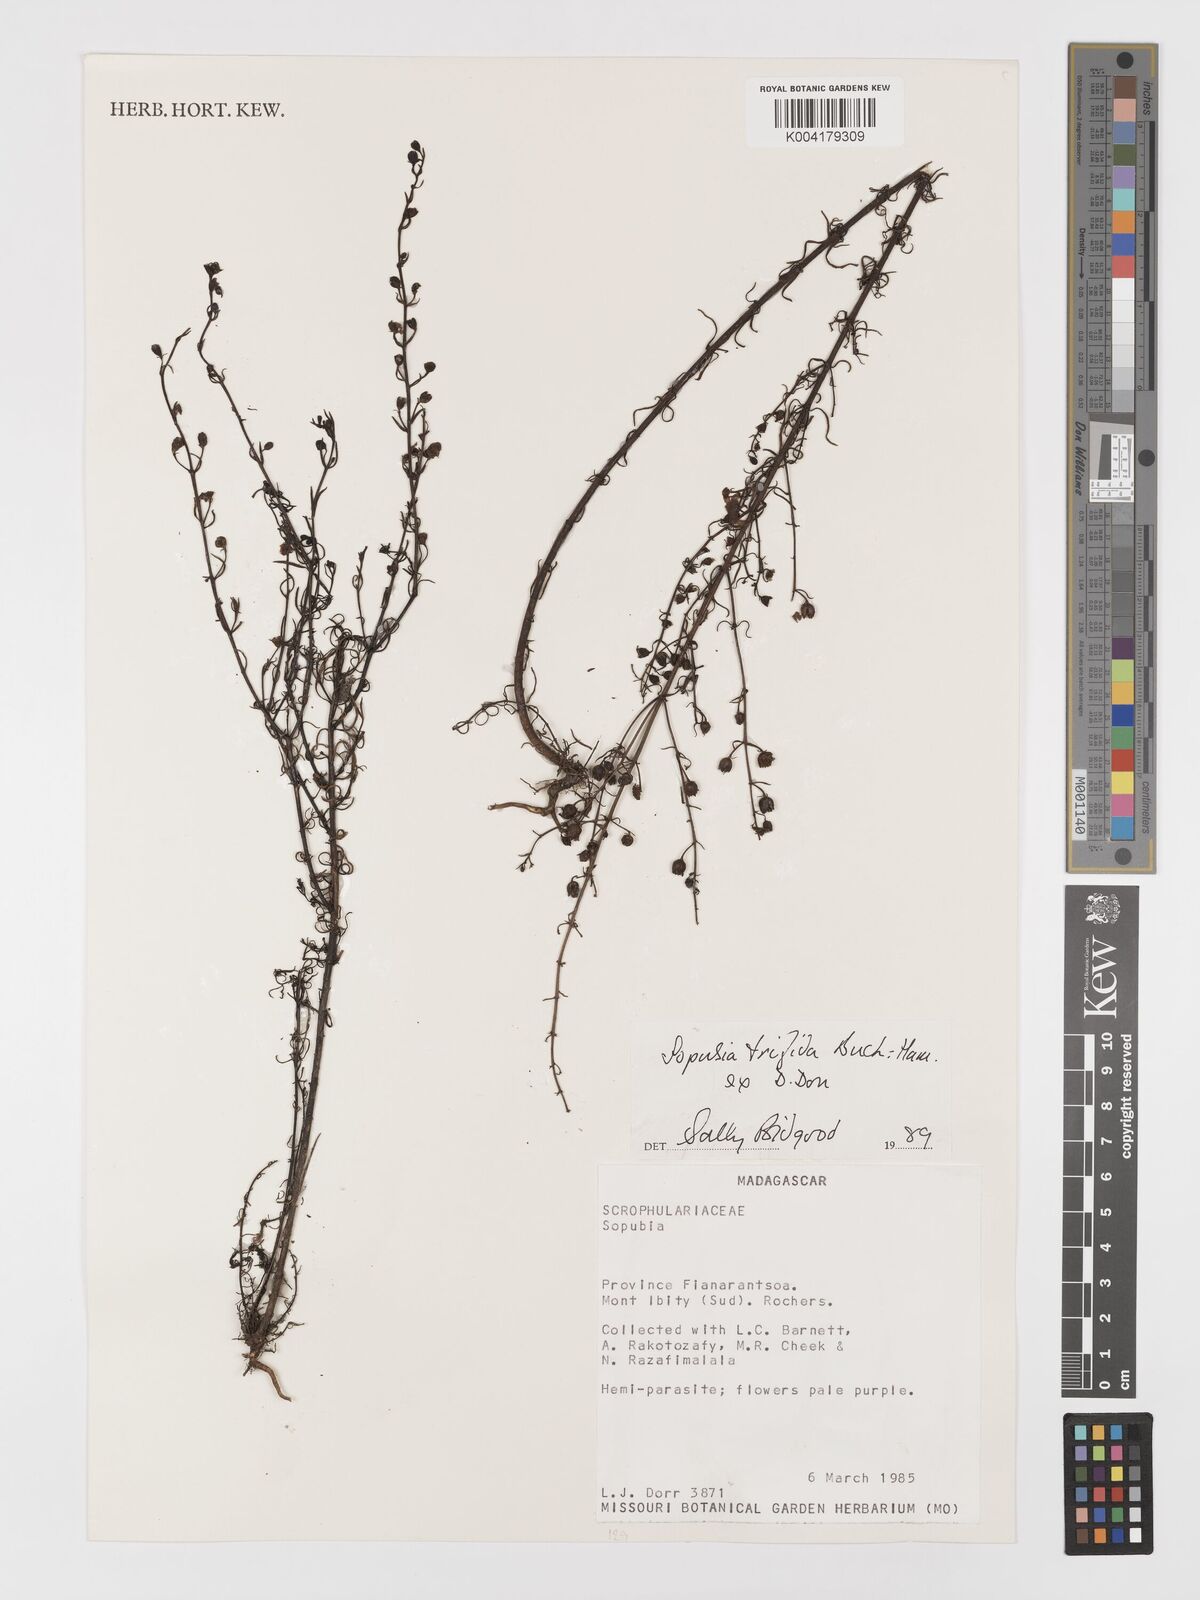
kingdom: Plantae
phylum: Tracheophyta
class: Magnoliopsida
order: Lamiales
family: Orobanchaceae
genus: Sopubia
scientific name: Sopubia trifida
